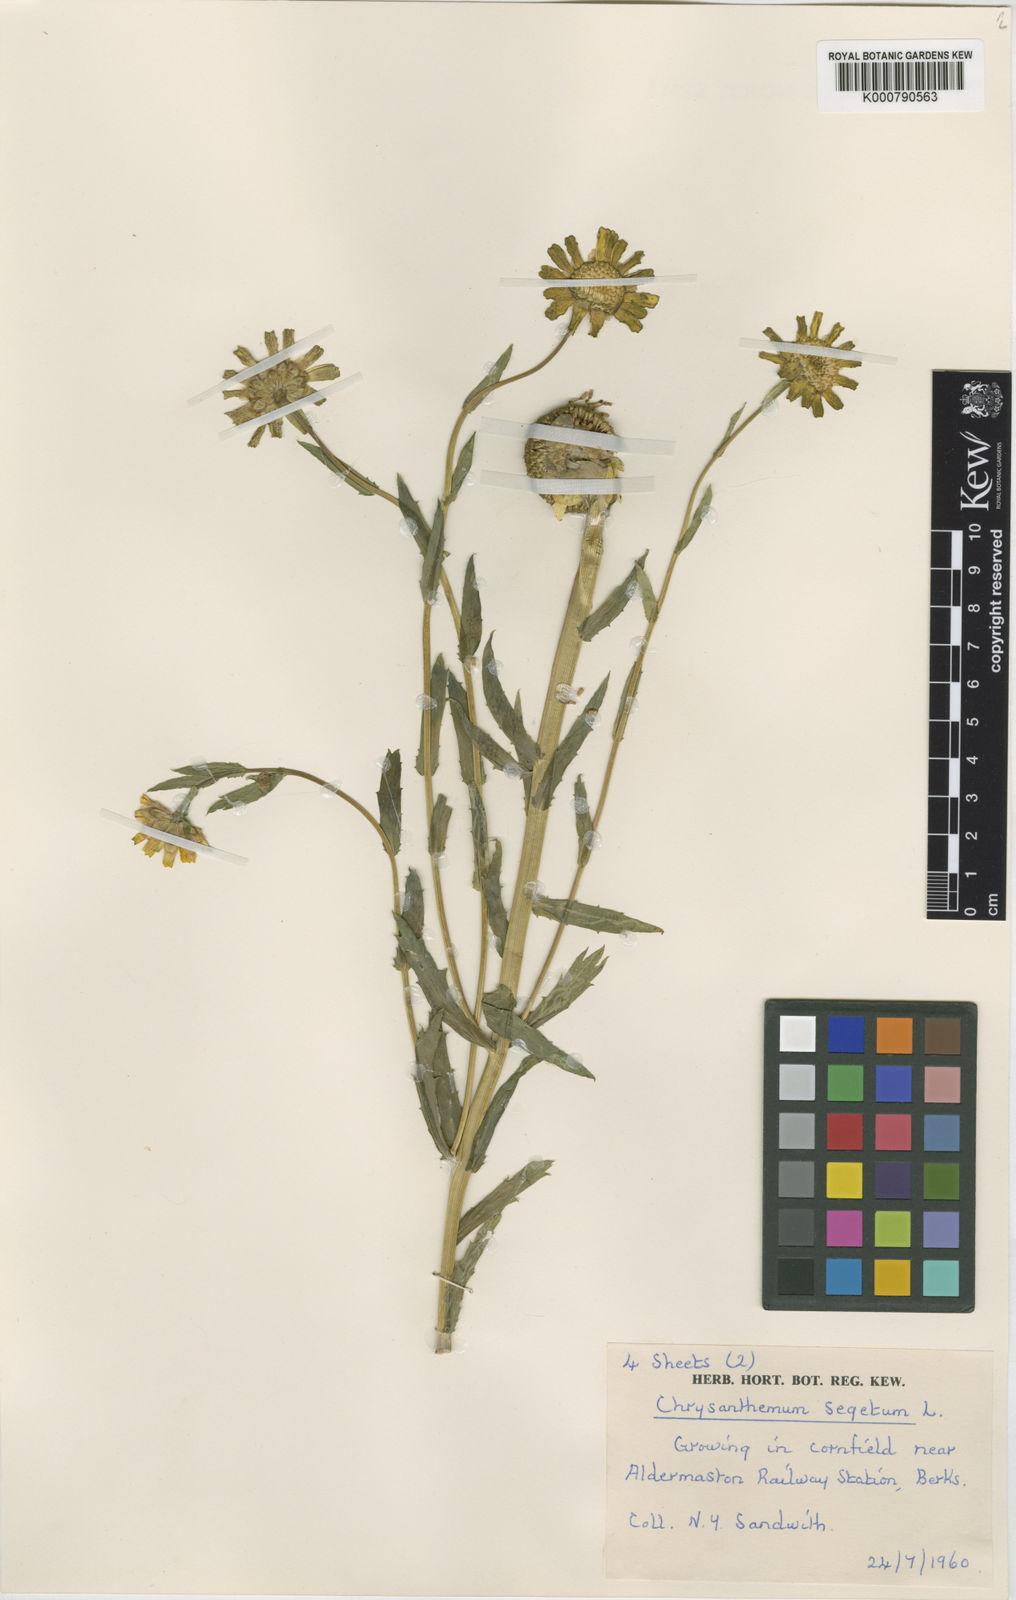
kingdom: Plantae
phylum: Tracheophyta
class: Magnoliopsida
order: Asterales
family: Asteraceae
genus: Glebionis
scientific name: Glebionis
